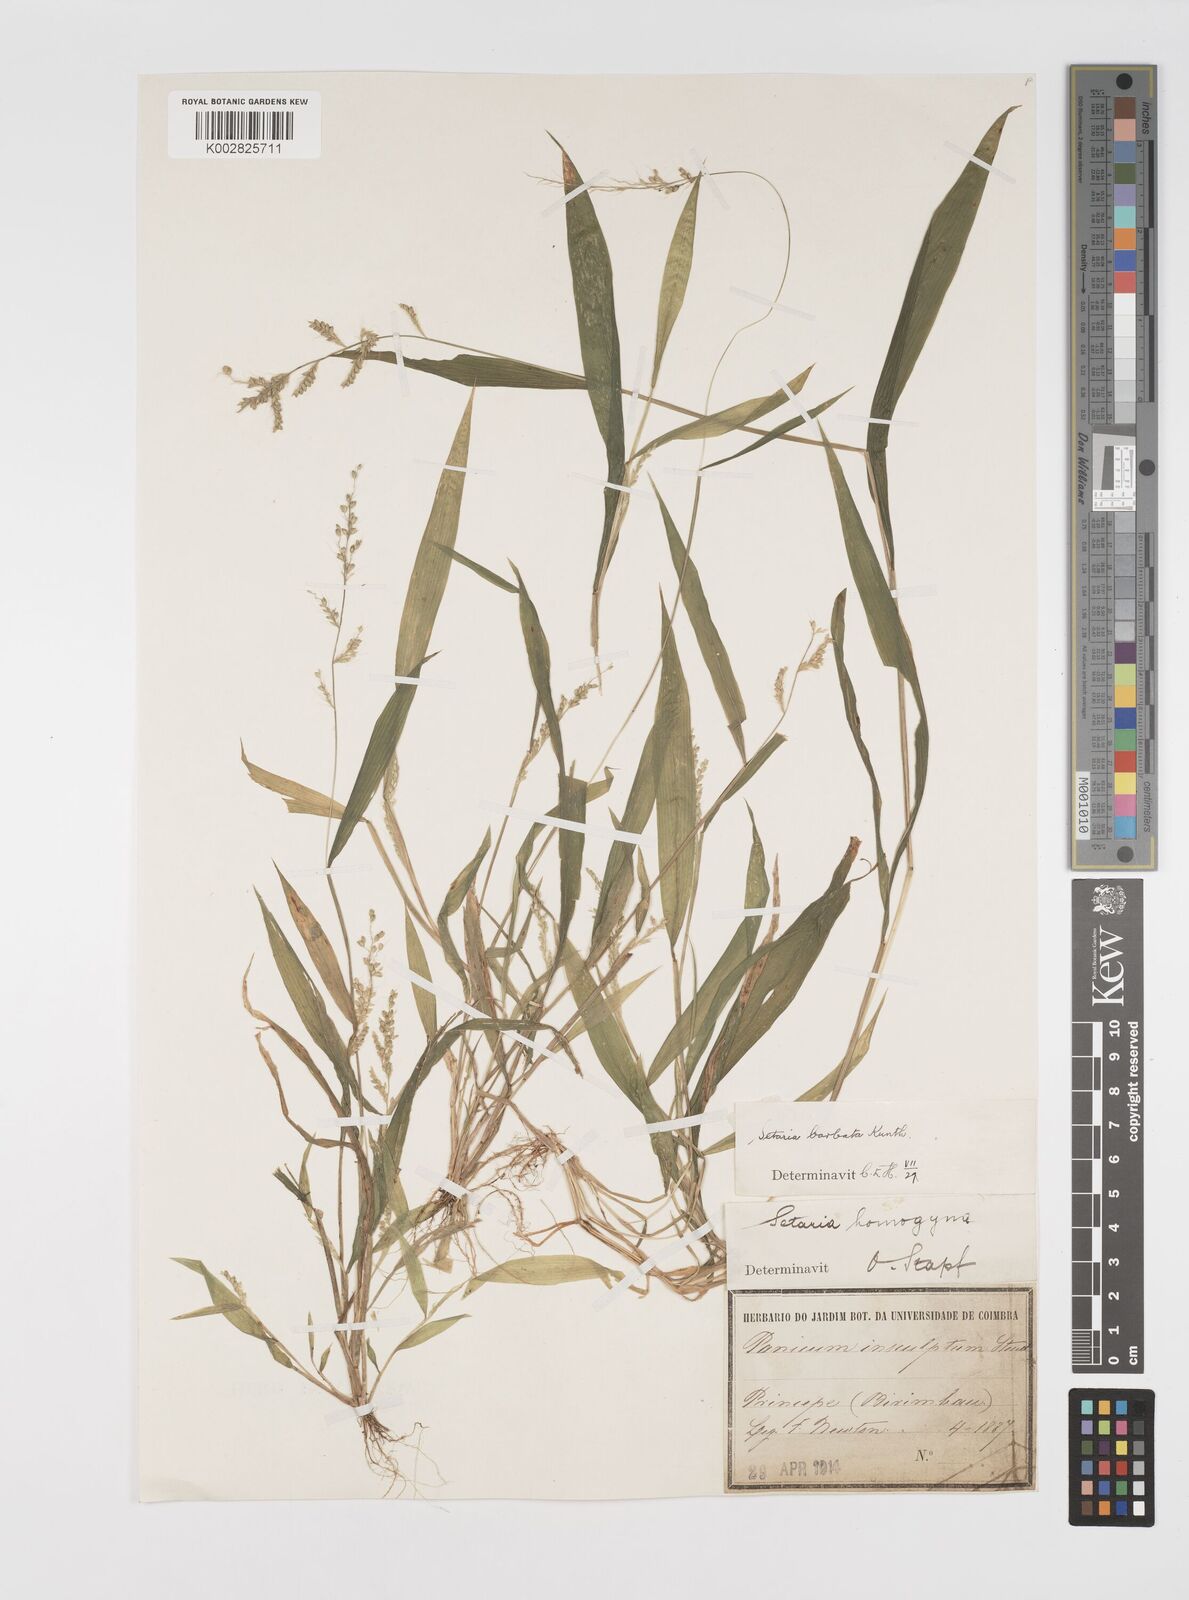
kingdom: Plantae
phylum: Tracheophyta
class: Liliopsida
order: Poales
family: Poaceae
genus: Setaria
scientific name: Setaria barbata
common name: East indian bristlegrass
